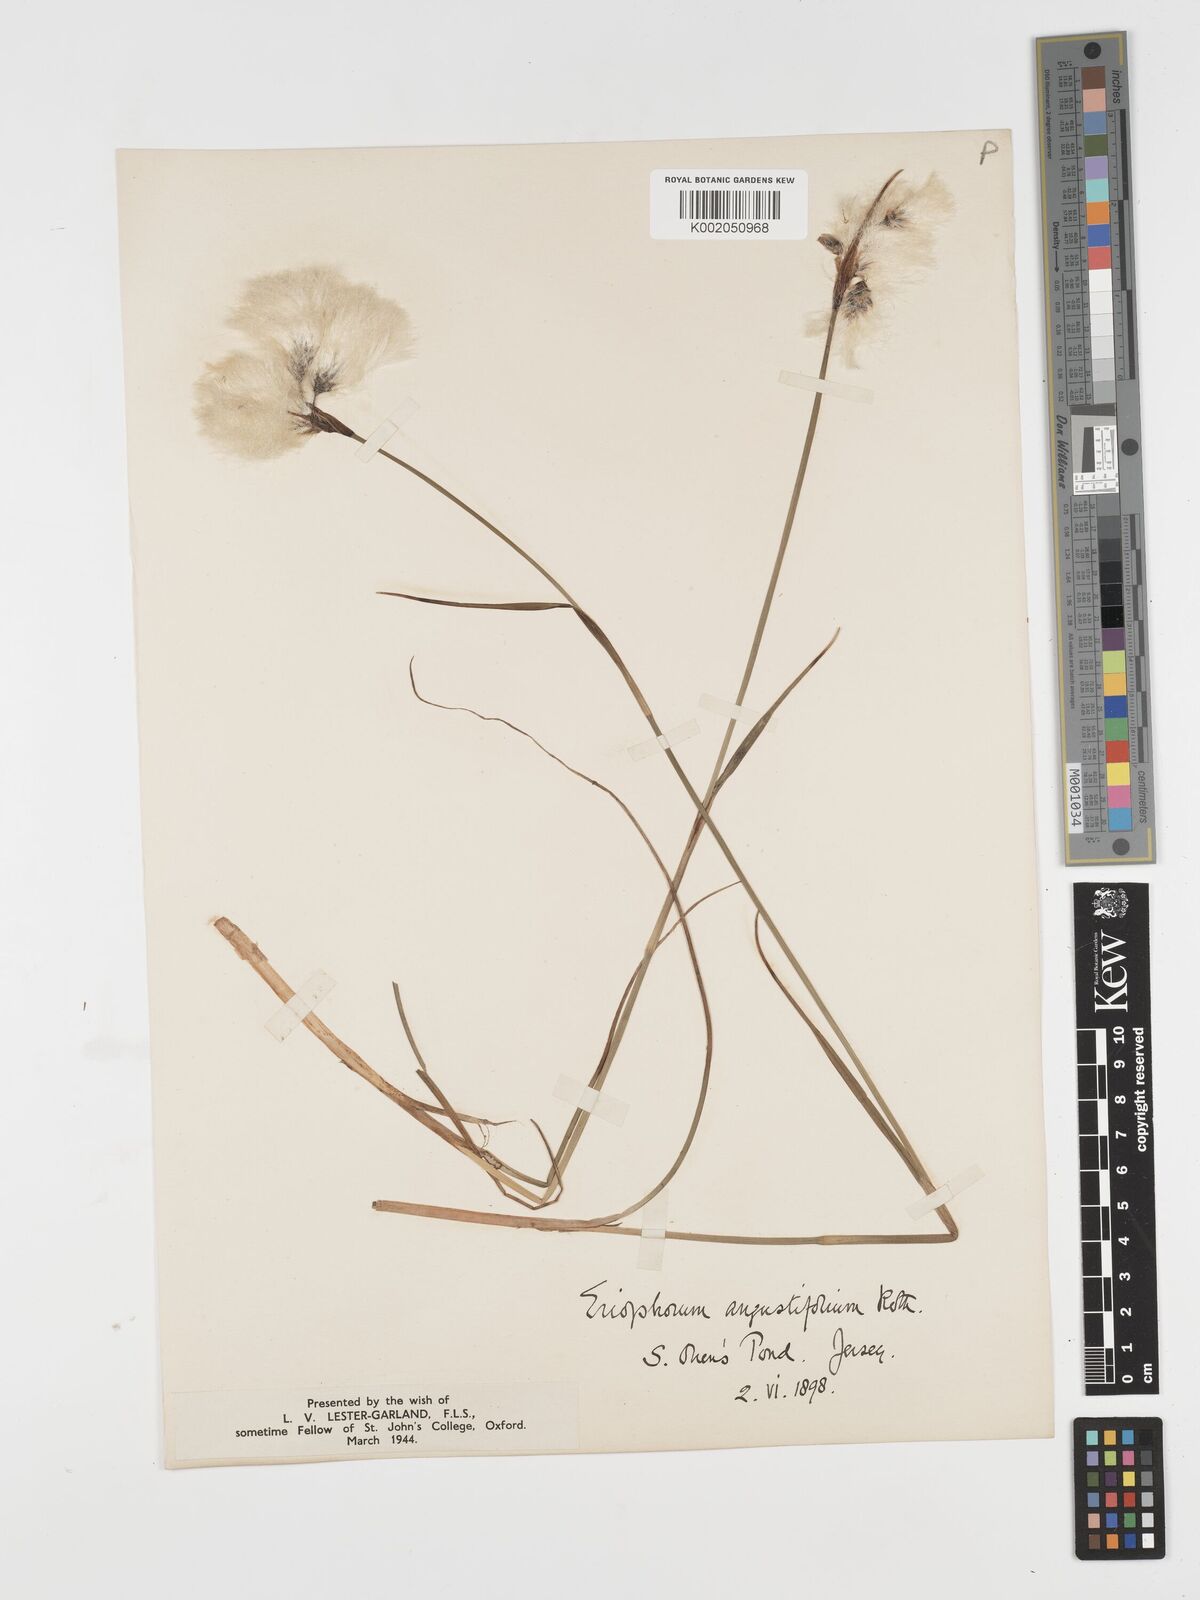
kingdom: Plantae
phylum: Tracheophyta
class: Liliopsida
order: Poales
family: Cyperaceae
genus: Eriophorum
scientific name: Eriophorum angustifolium
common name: Common cottongrass
